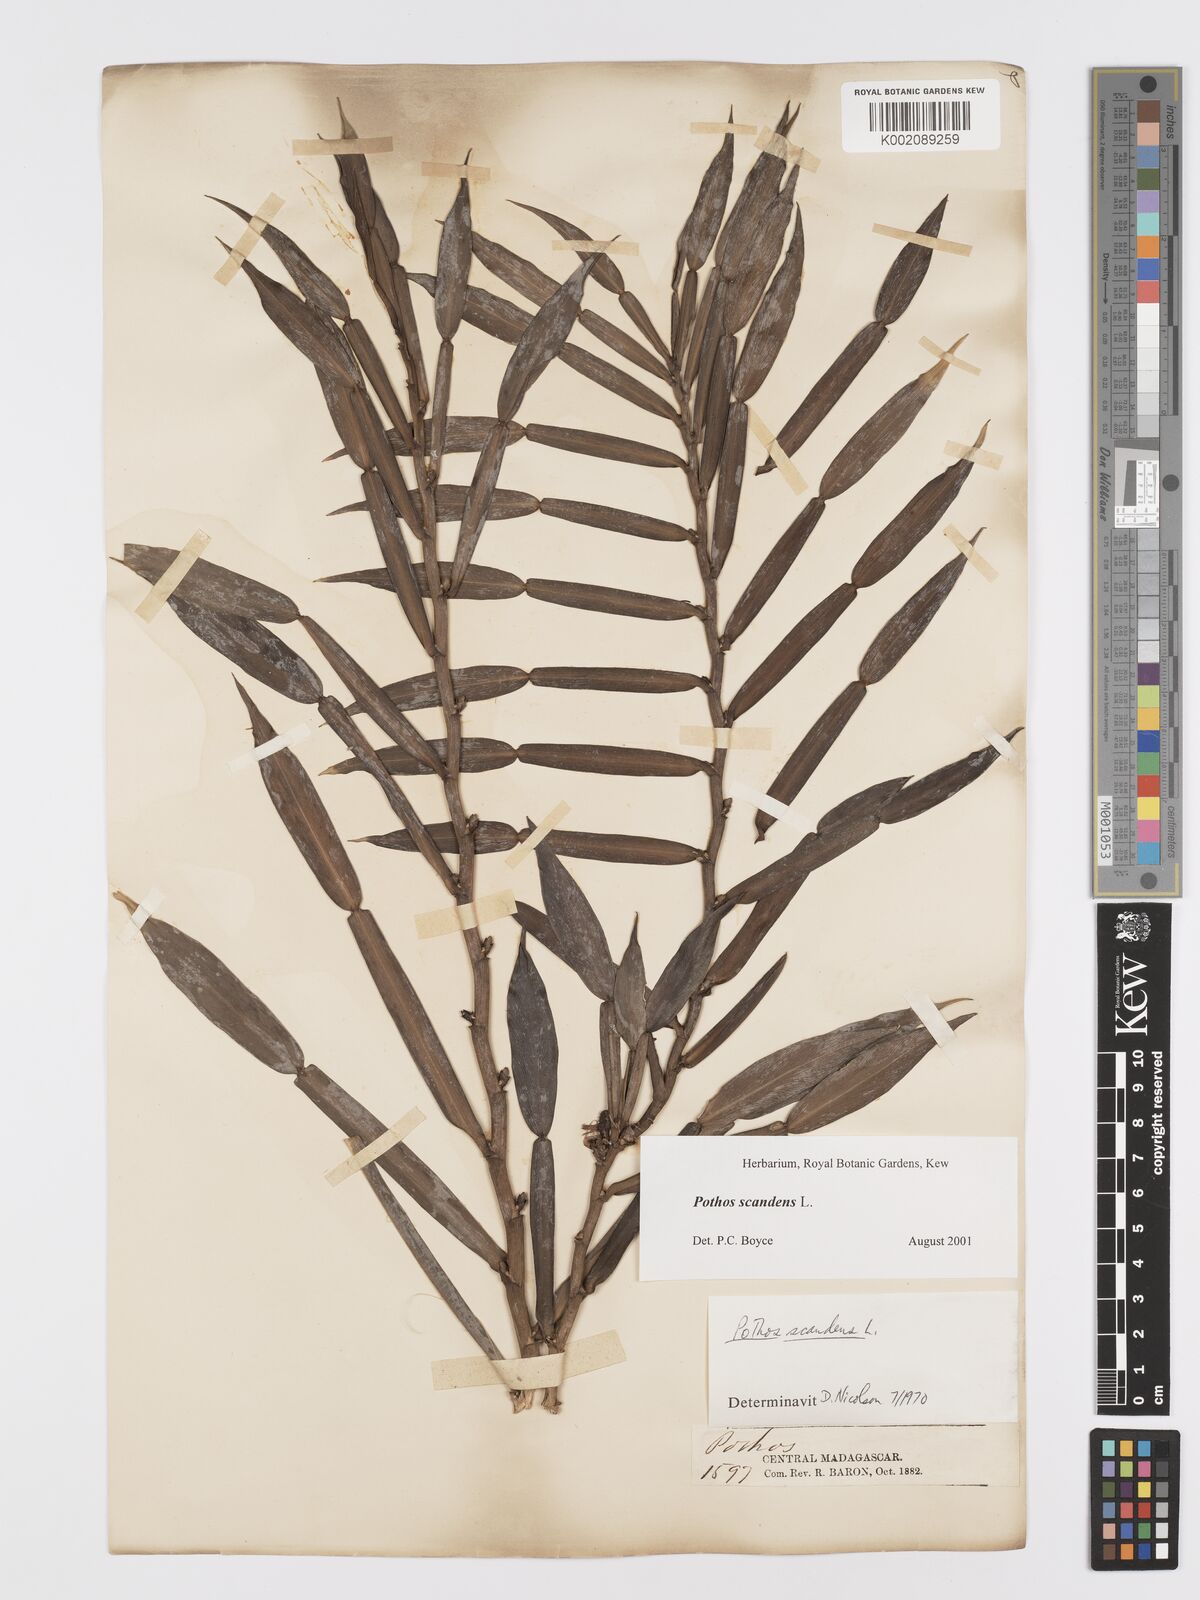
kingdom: Plantae
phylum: Tracheophyta
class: Liliopsida
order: Alismatales
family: Araceae
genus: Pothos
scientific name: Pothos scandens
